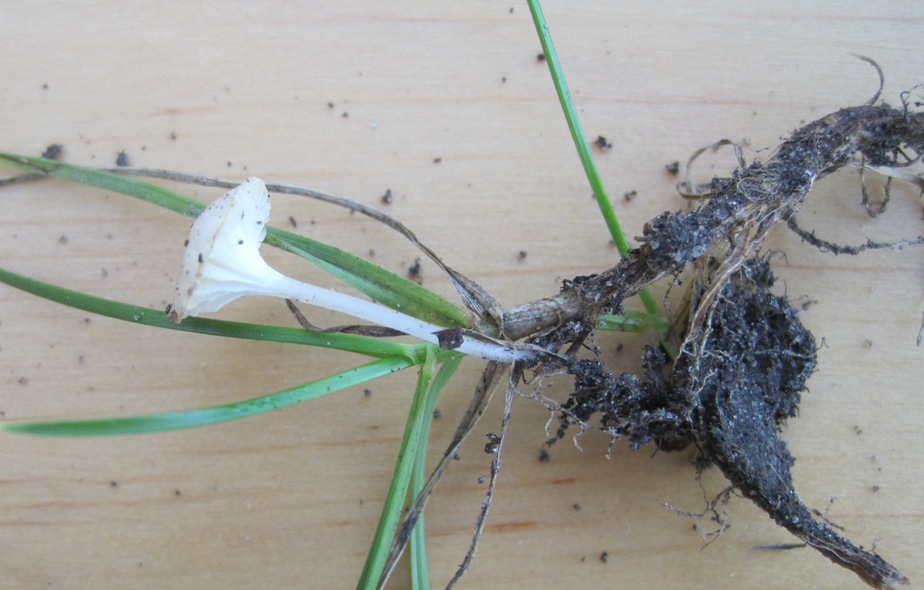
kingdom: Fungi
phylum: Basidiomycota
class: Agaricomycetes
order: Agaricales
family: Mycenaceae
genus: Hemimycena
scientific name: Hemimycena mairei
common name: voks-huesvamp
